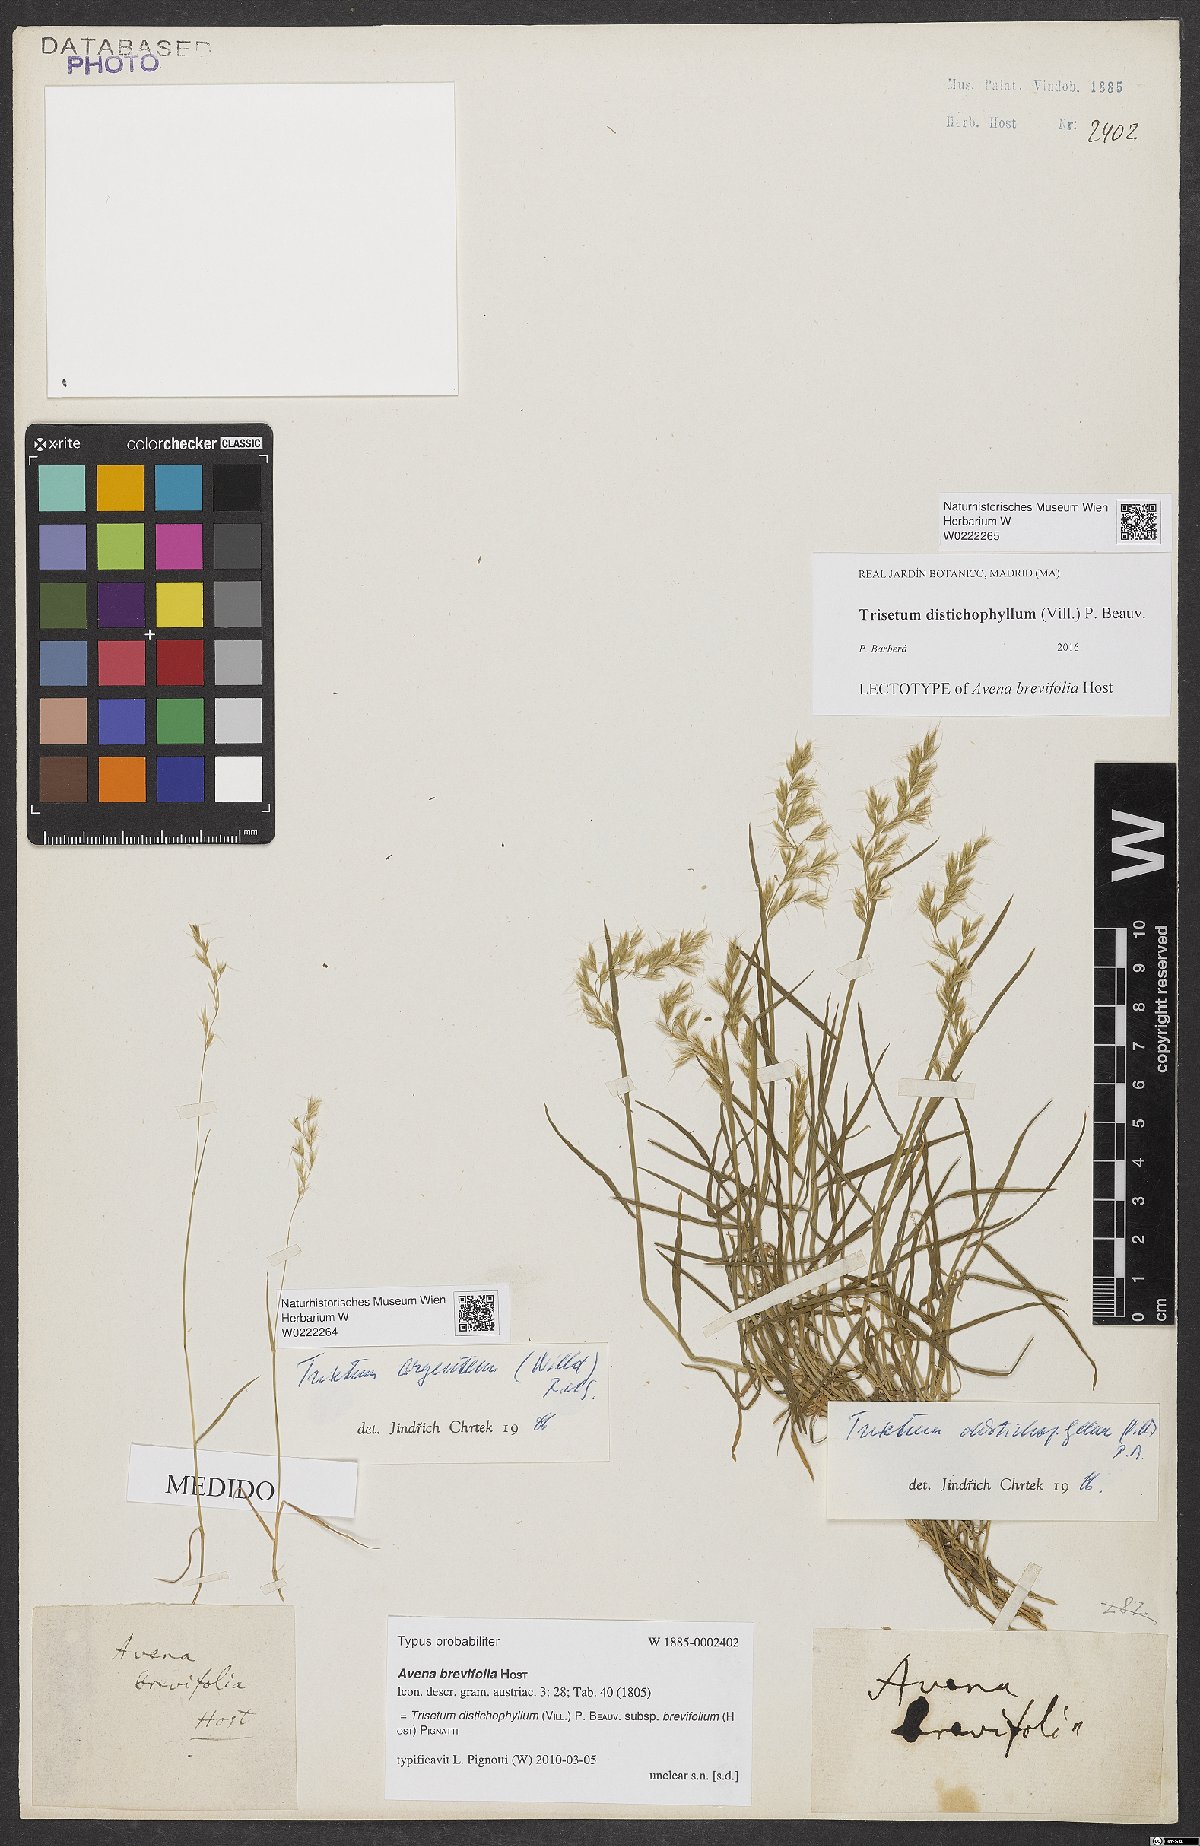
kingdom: Plantae
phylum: Tracheophyta
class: Liliopsida
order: Poales
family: Poaceae
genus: Acrospelion
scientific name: Acrospelion distichophyllum
